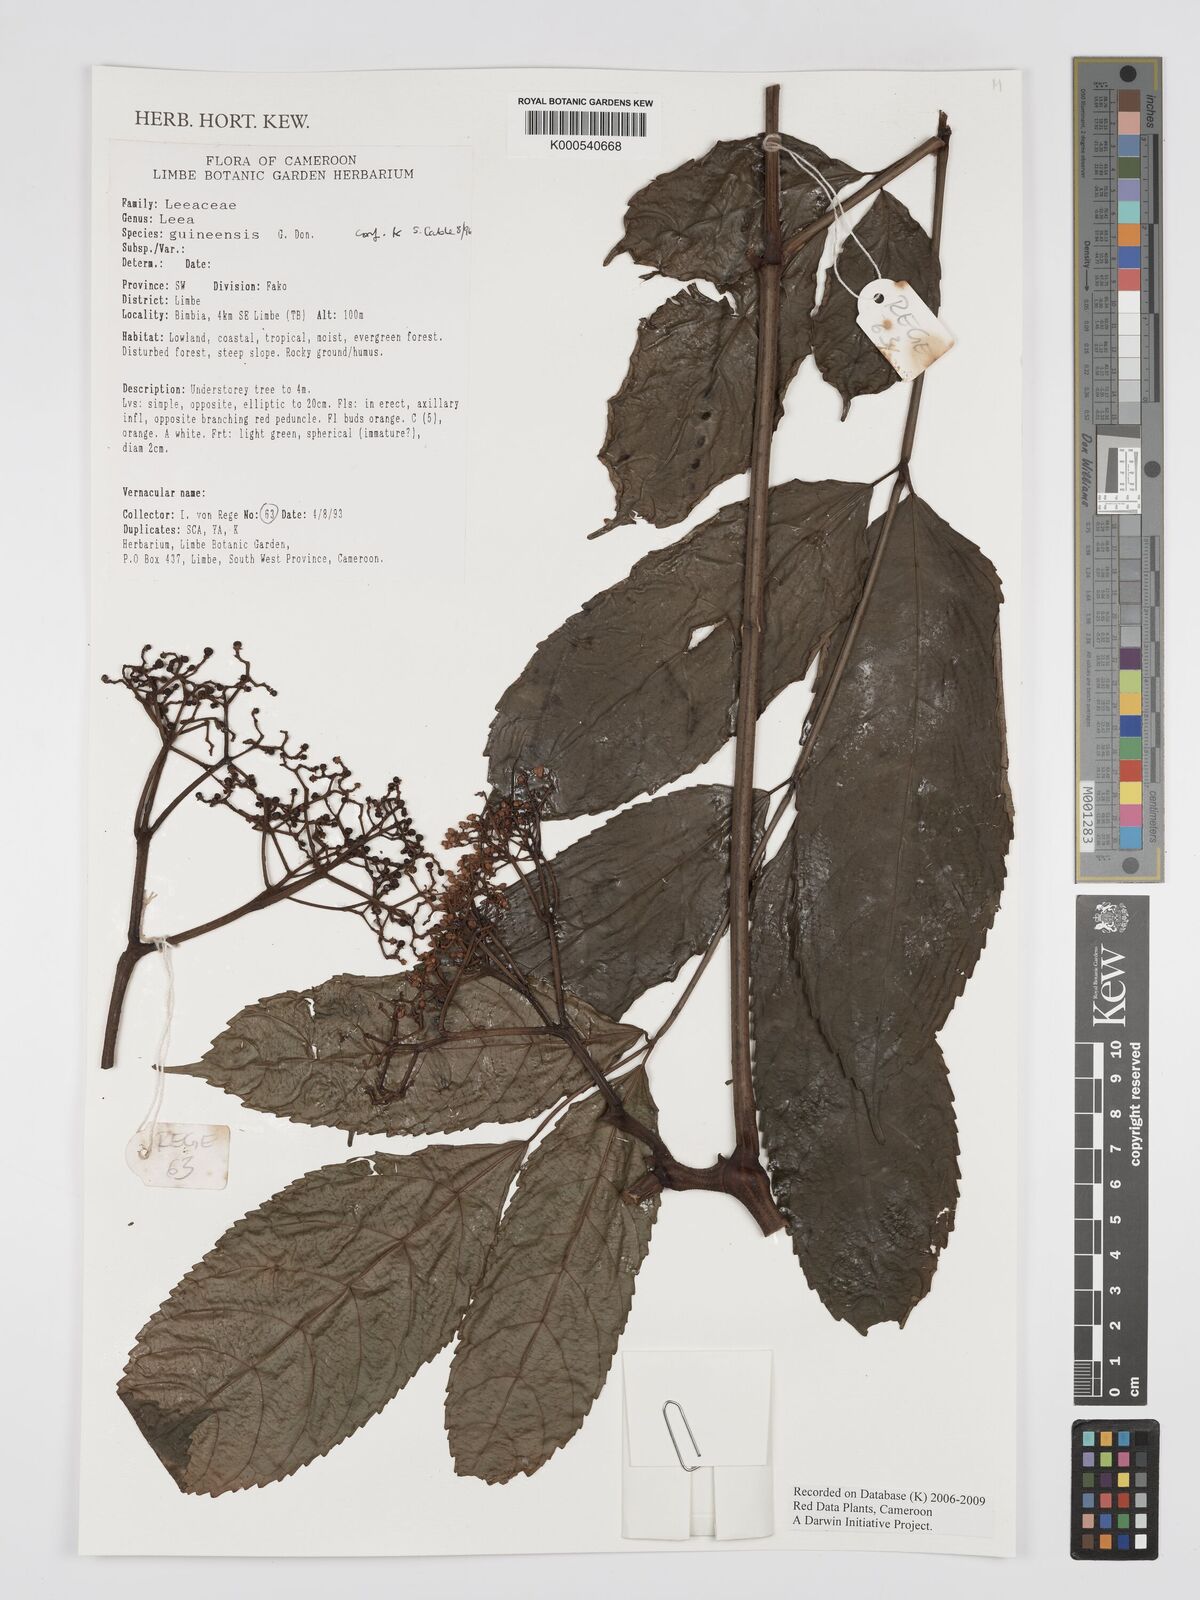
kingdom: Plantae
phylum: Tracheophyta
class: Magnoliopsida
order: Vitales
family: Vitaceae
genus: Leea
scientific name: Leea guineensis
